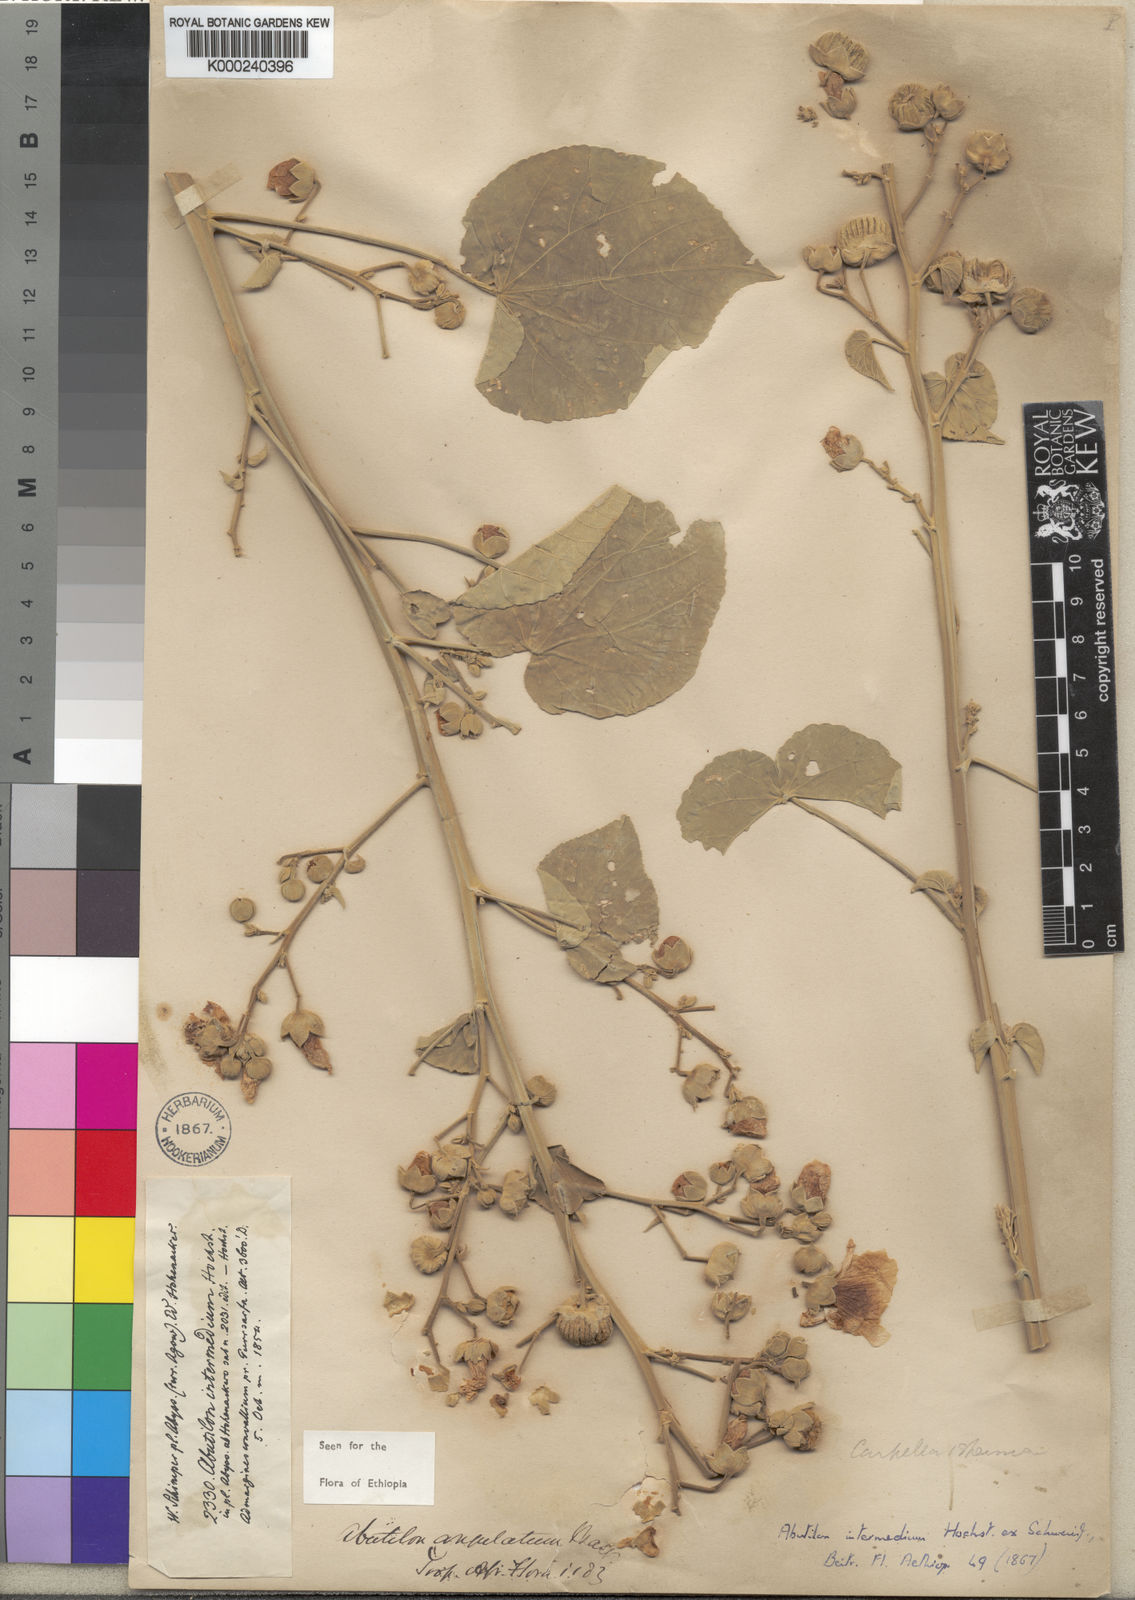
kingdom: Plantae
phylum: Tracheophyta
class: Magnoliopsida
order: Malvales
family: Malvaceae
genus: Abutilon
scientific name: Abutilon angulatum
